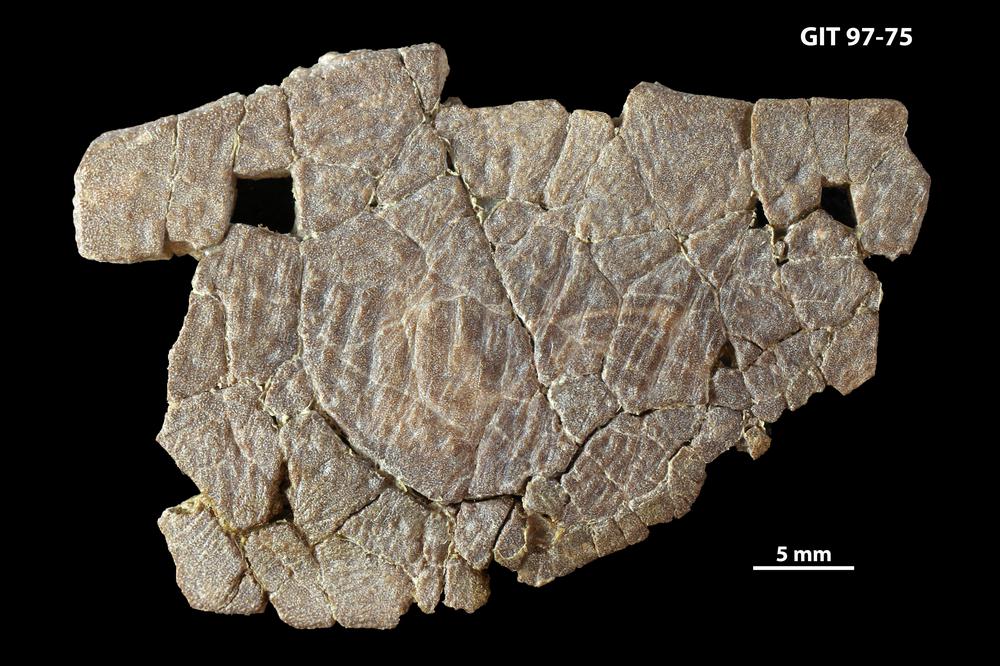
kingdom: Animalia
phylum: Chordata
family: Holonematidae
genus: Holonema
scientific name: Holonema
